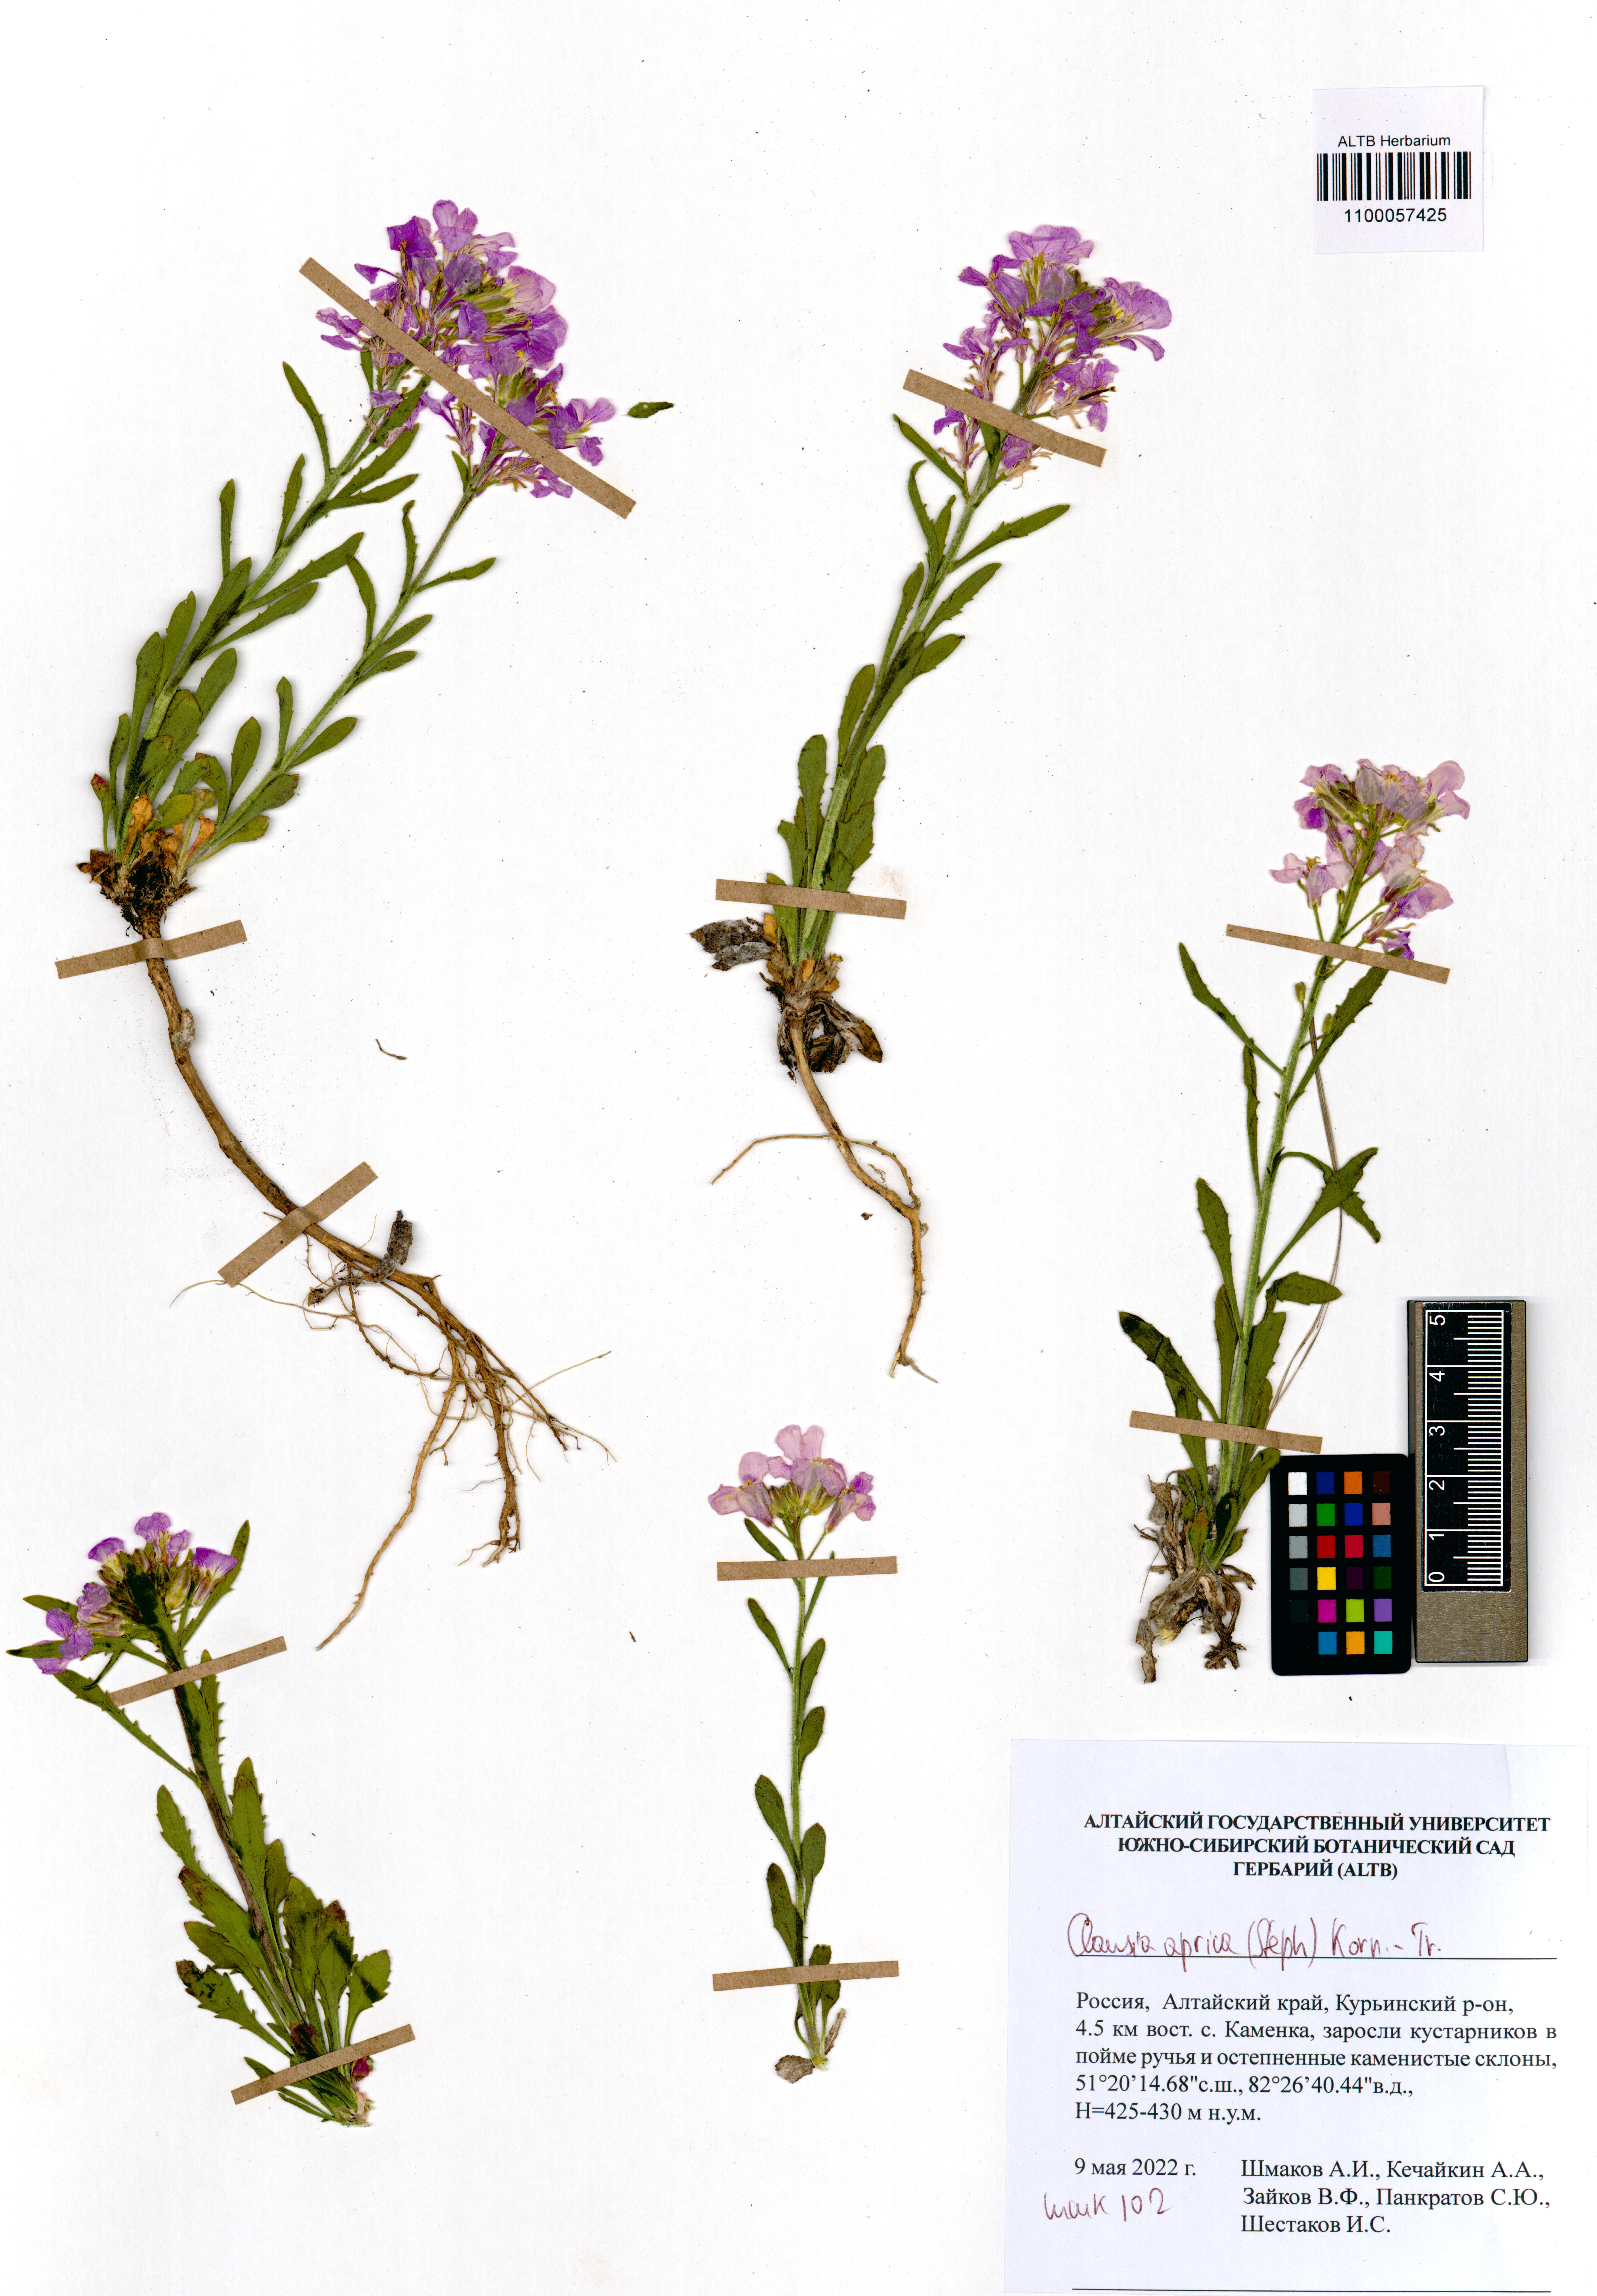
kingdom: Plantae
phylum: Tracheophyta
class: Magnoliopsida
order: Brassicales
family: Brassicaceae
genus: Clausia
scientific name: Clausia aprica
